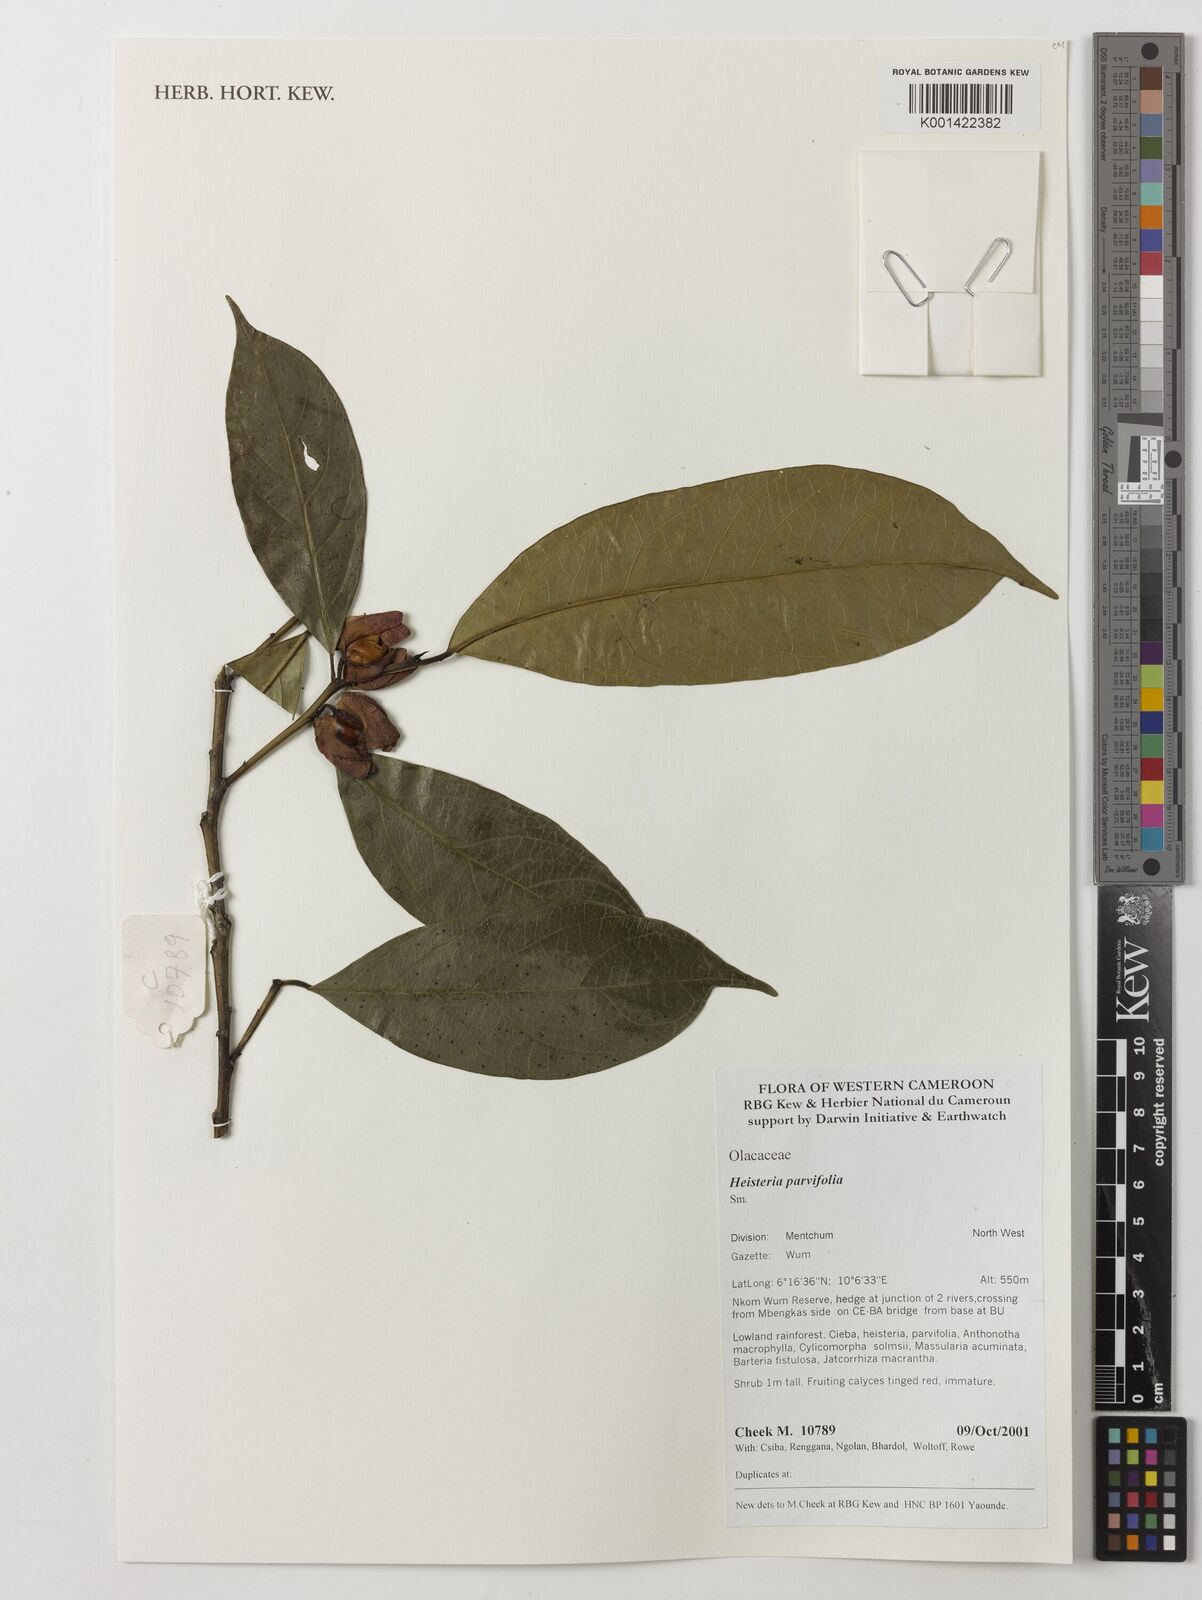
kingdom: Plantae
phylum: Tracheophyta
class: Magnoliopsida
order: Santalales
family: Erythropalaceae
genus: Heisteria
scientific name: Heisteria parvifolia
